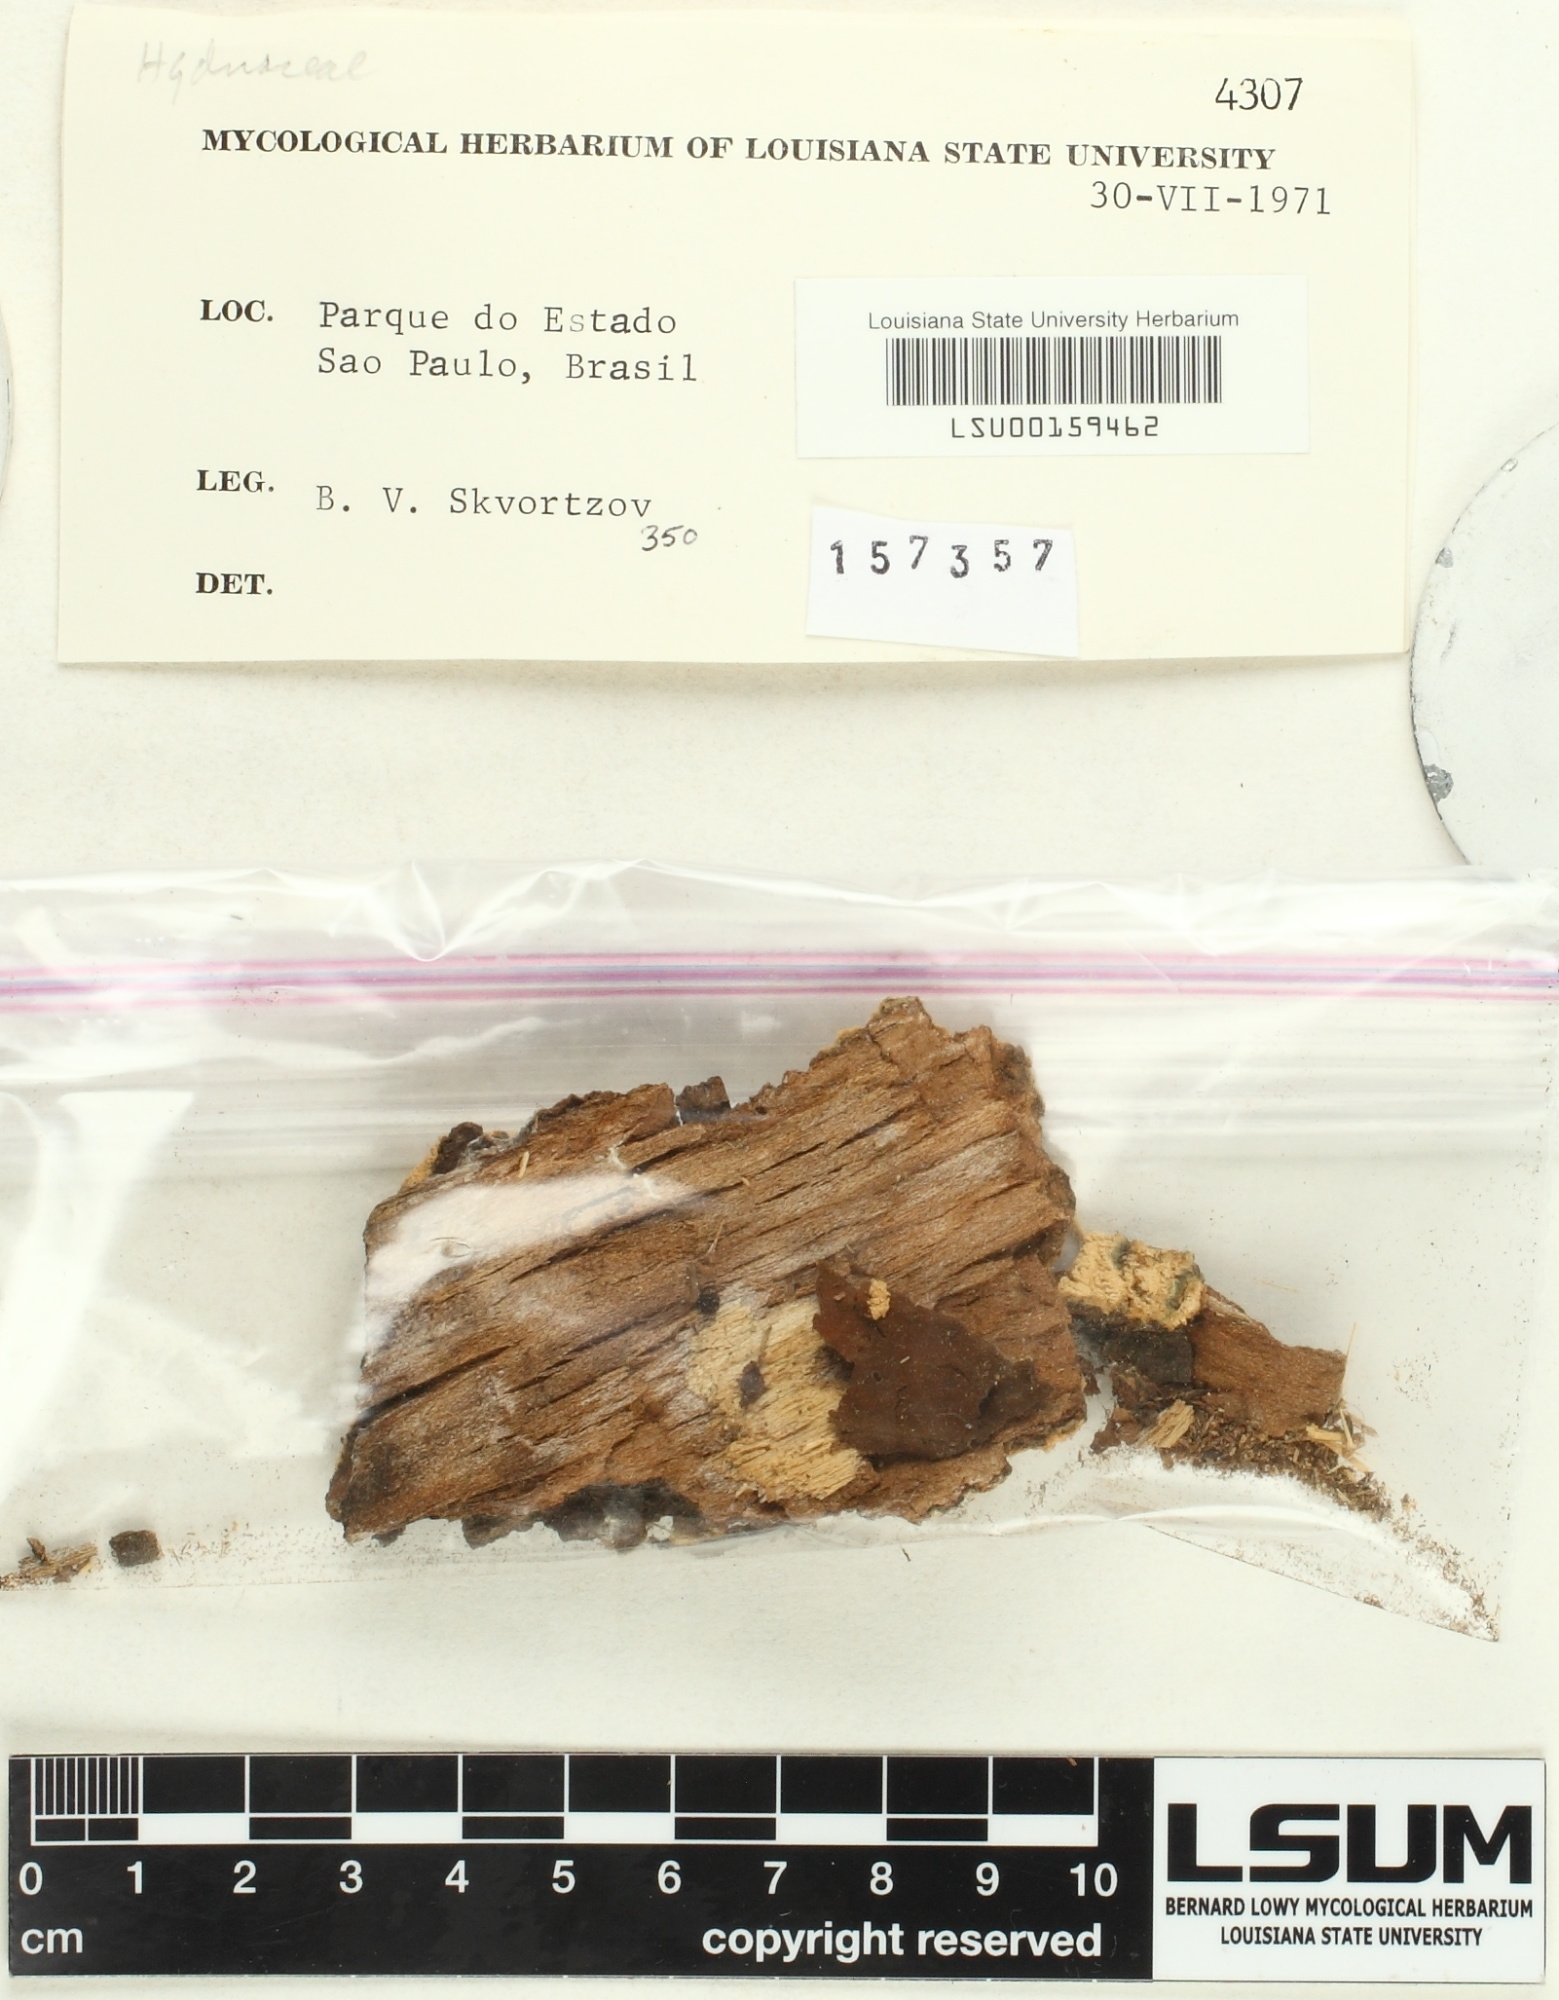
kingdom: Fungi
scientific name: Fungi
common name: Fungi
